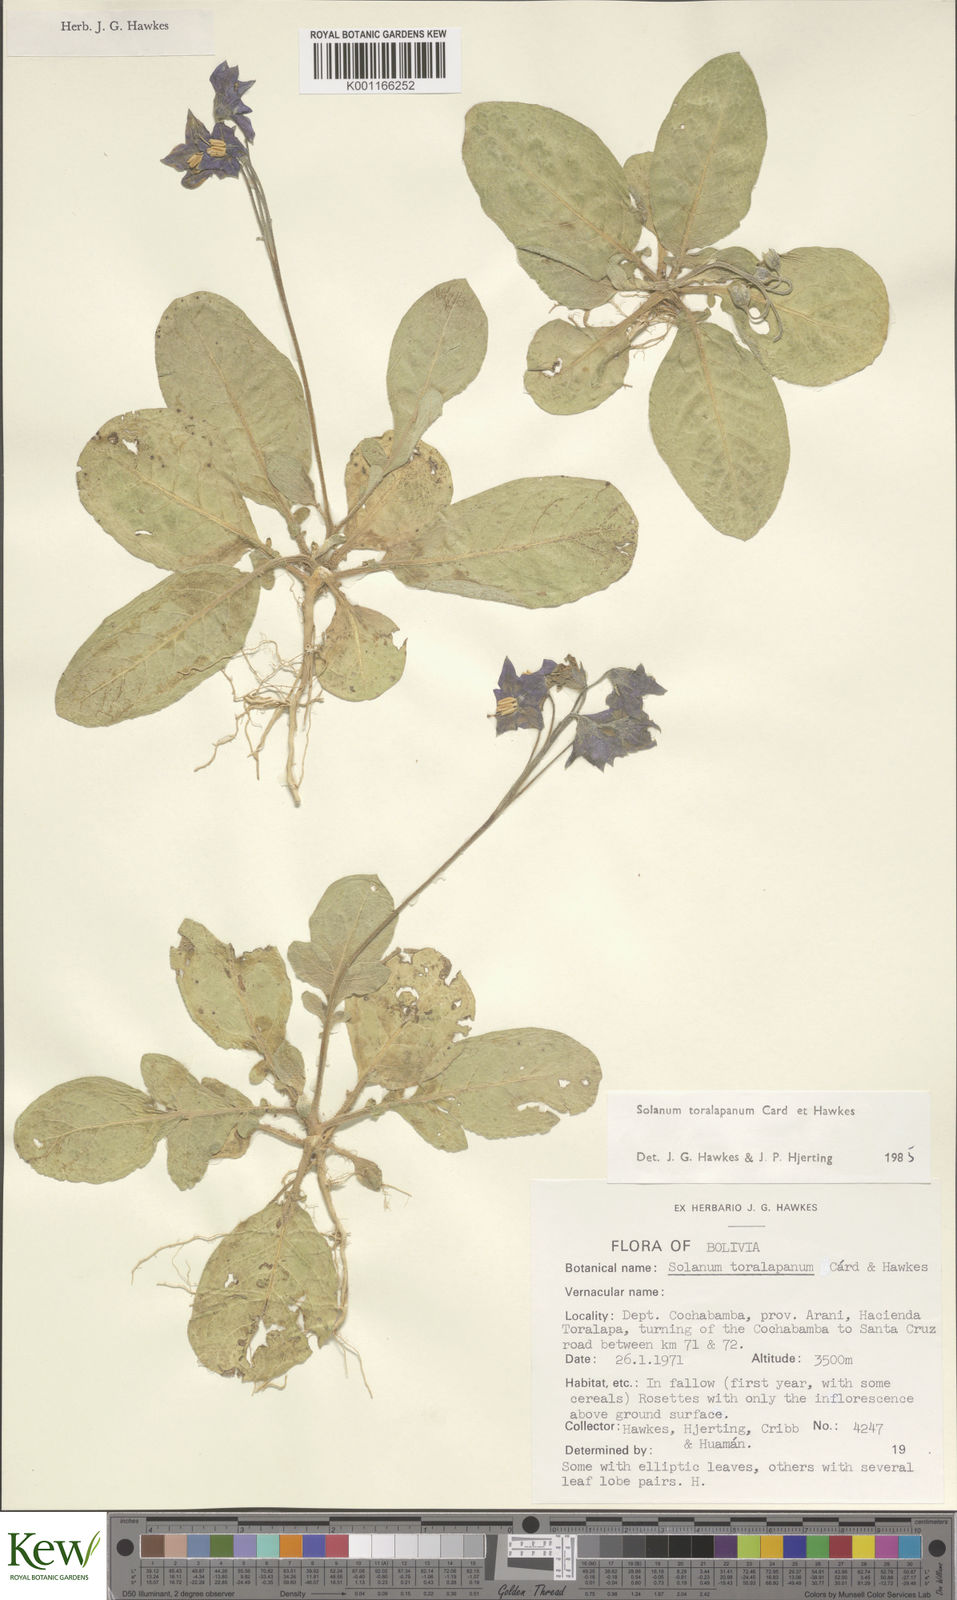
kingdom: Plantae
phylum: Tracheophyta
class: Magnoliopsida
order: Solanales
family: Solanaceae
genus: Solanum
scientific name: Solanum boliviense
